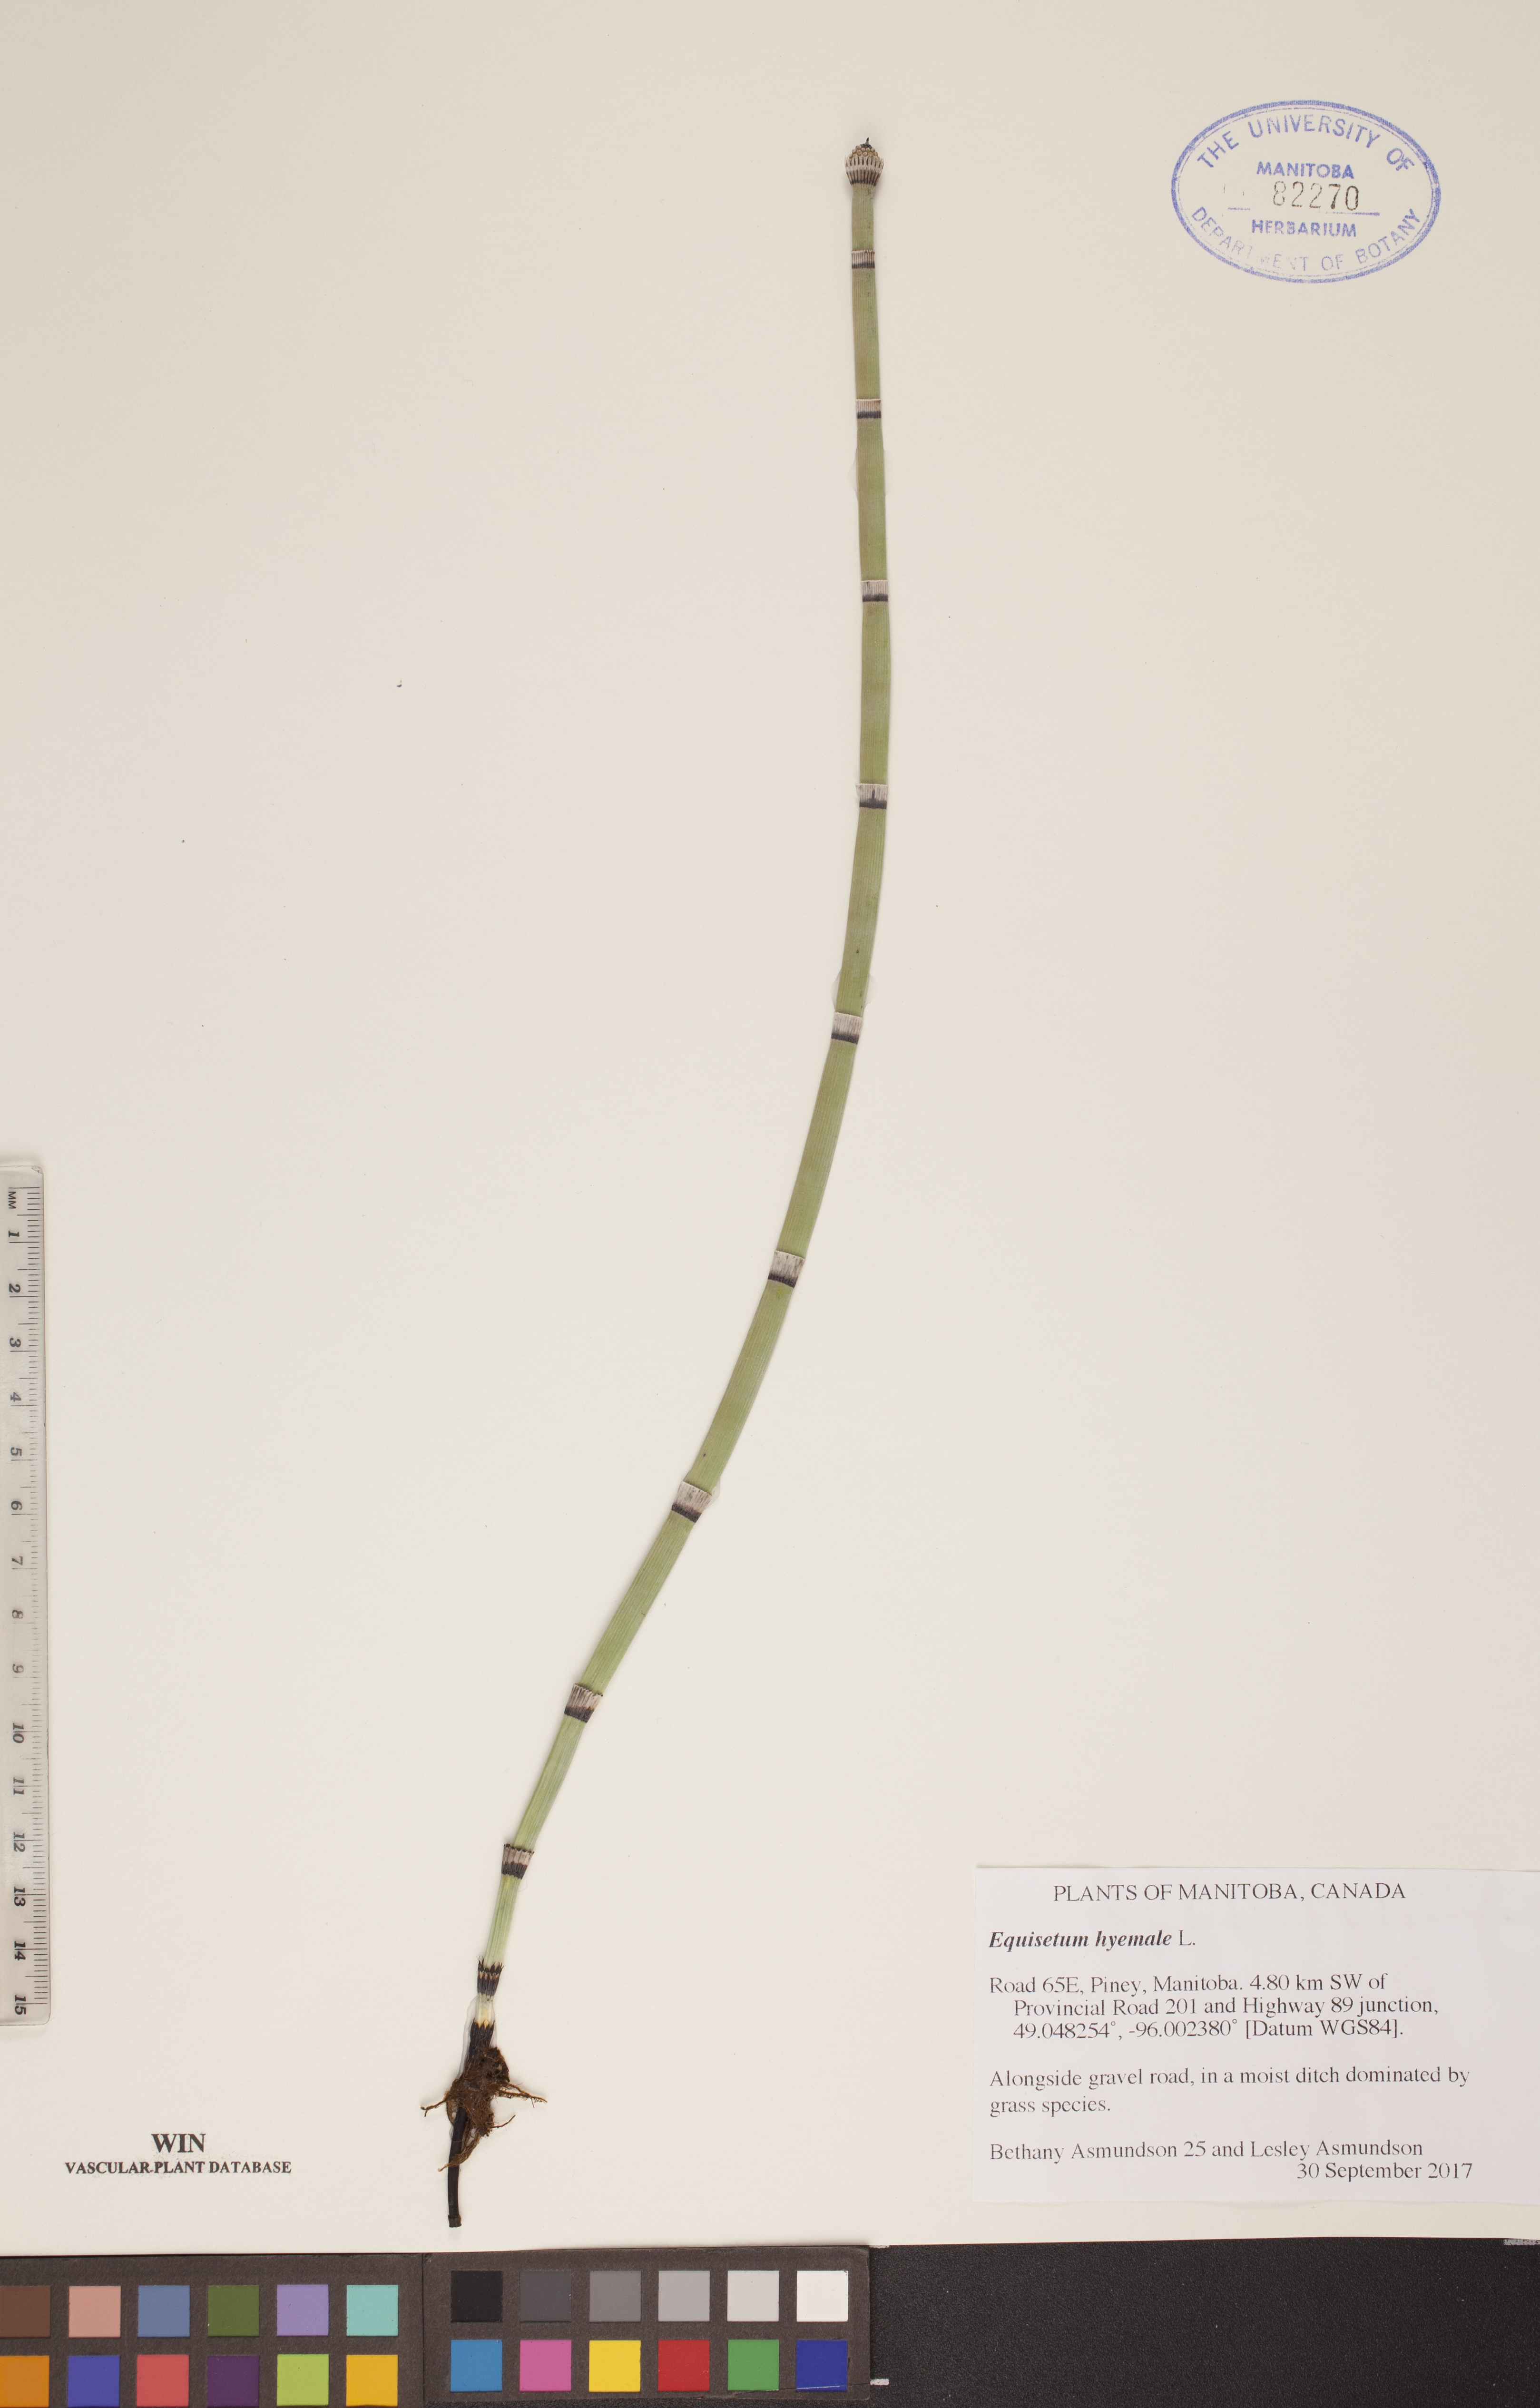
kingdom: Plantae
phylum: Tracheophyta
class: Polypodiopsida
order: Equisetales
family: Equisetaceae
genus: Equisetum
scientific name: Equisetum hyemale
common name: Rough horsetail
